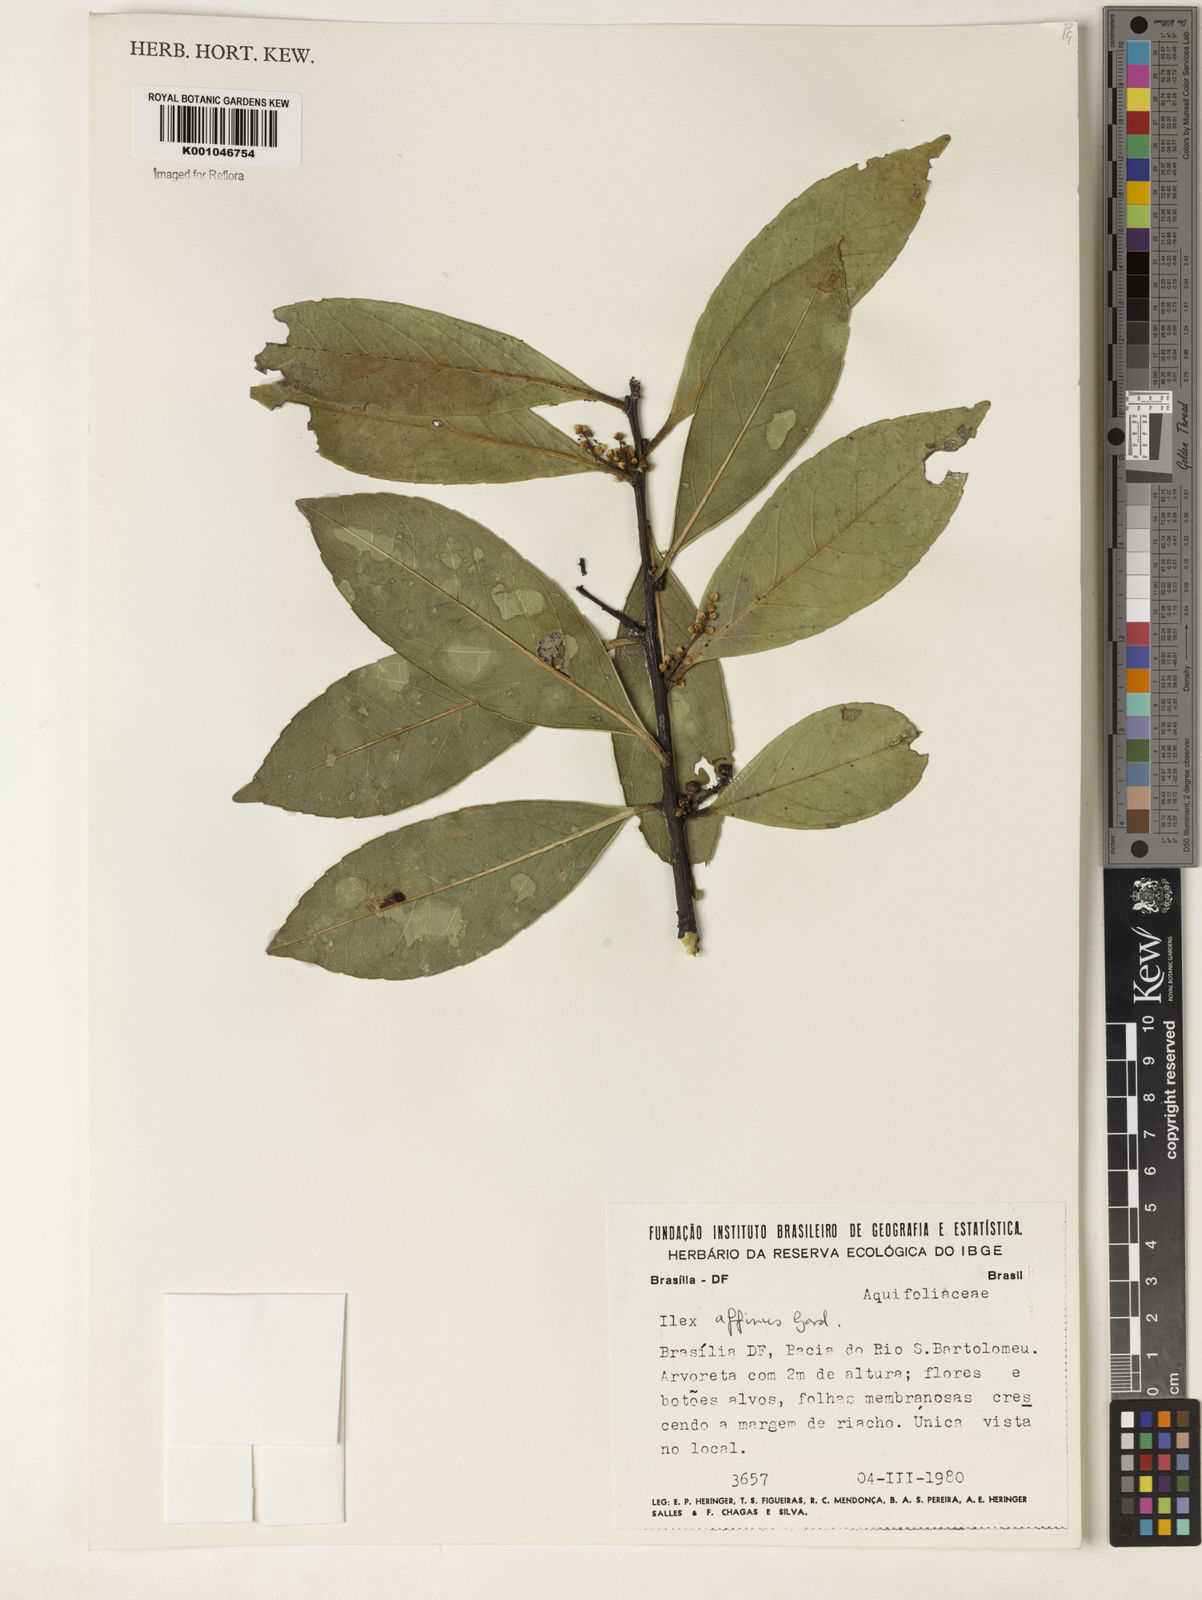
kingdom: Plantae
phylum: Tracheophyta
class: Magnoliopsida
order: Aquifoliales
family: Aquifoliaceae
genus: Ilex
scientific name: Ilex affinis
